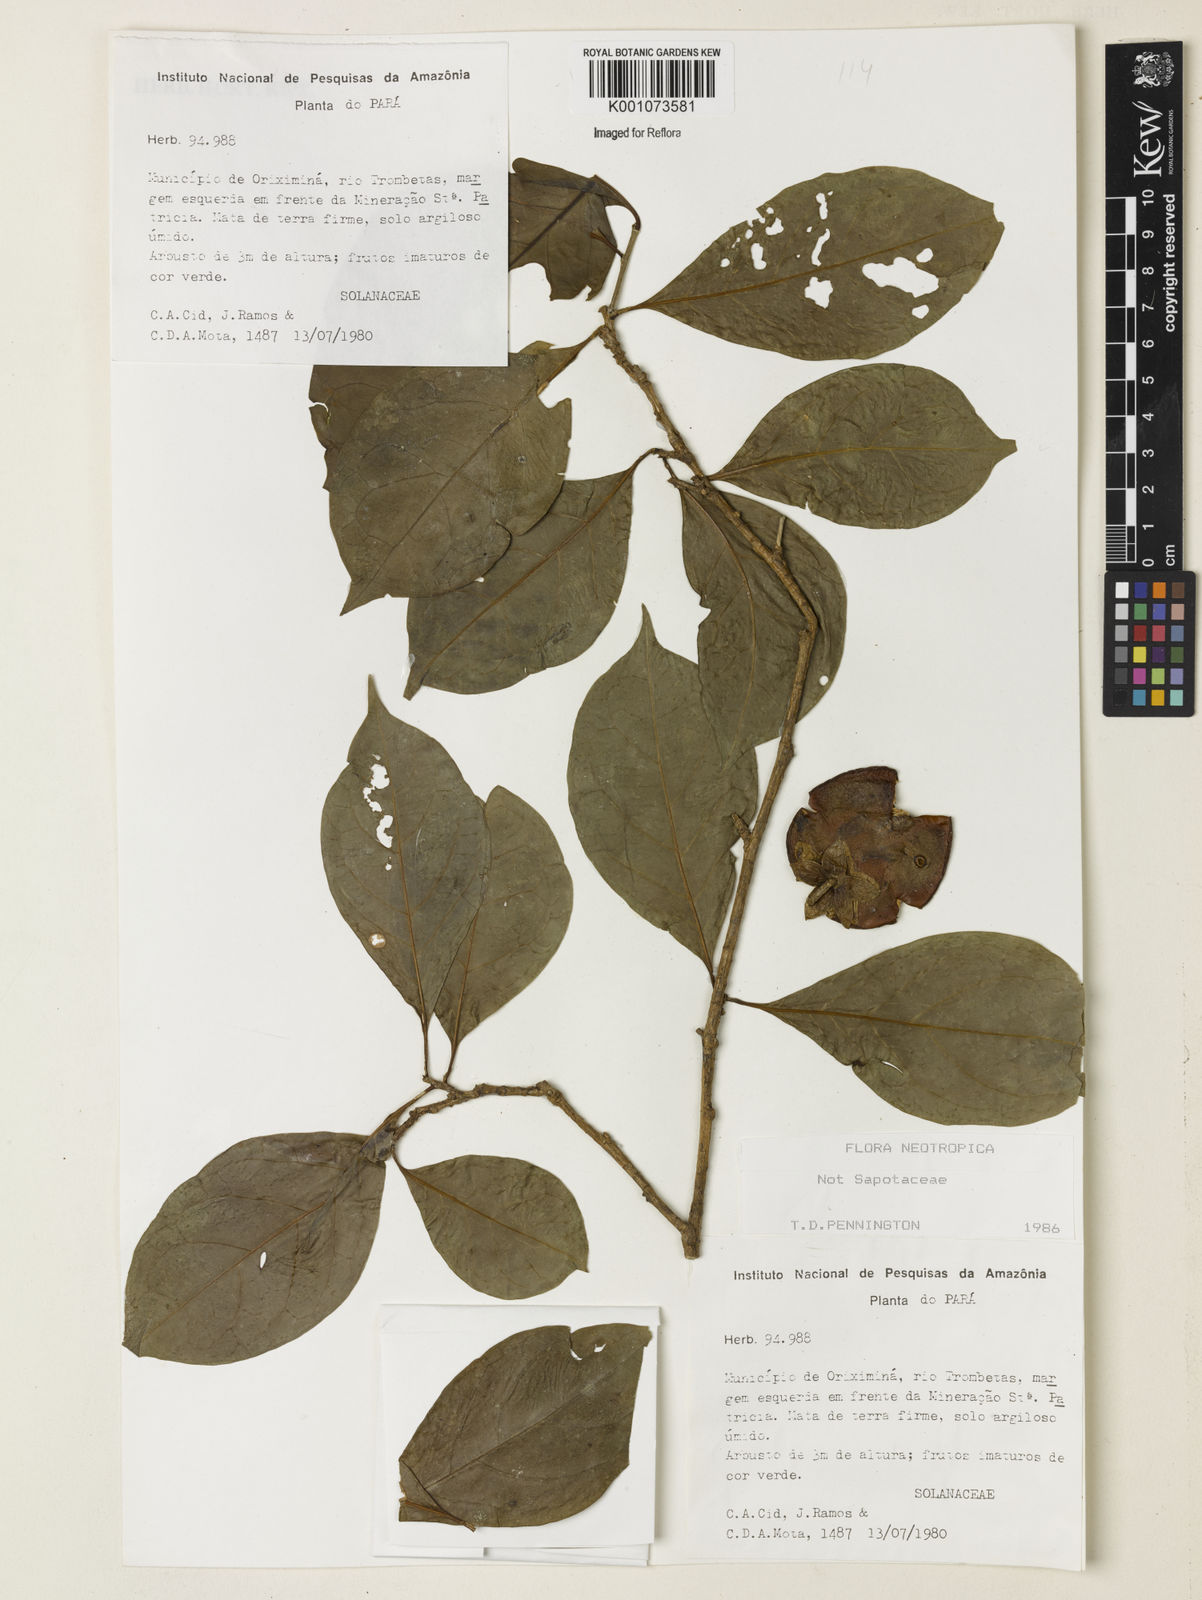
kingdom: Plantae
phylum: Tracheophyta
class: Magnoliopsida
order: Solanales
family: Solanaceae
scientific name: Solanaceae
